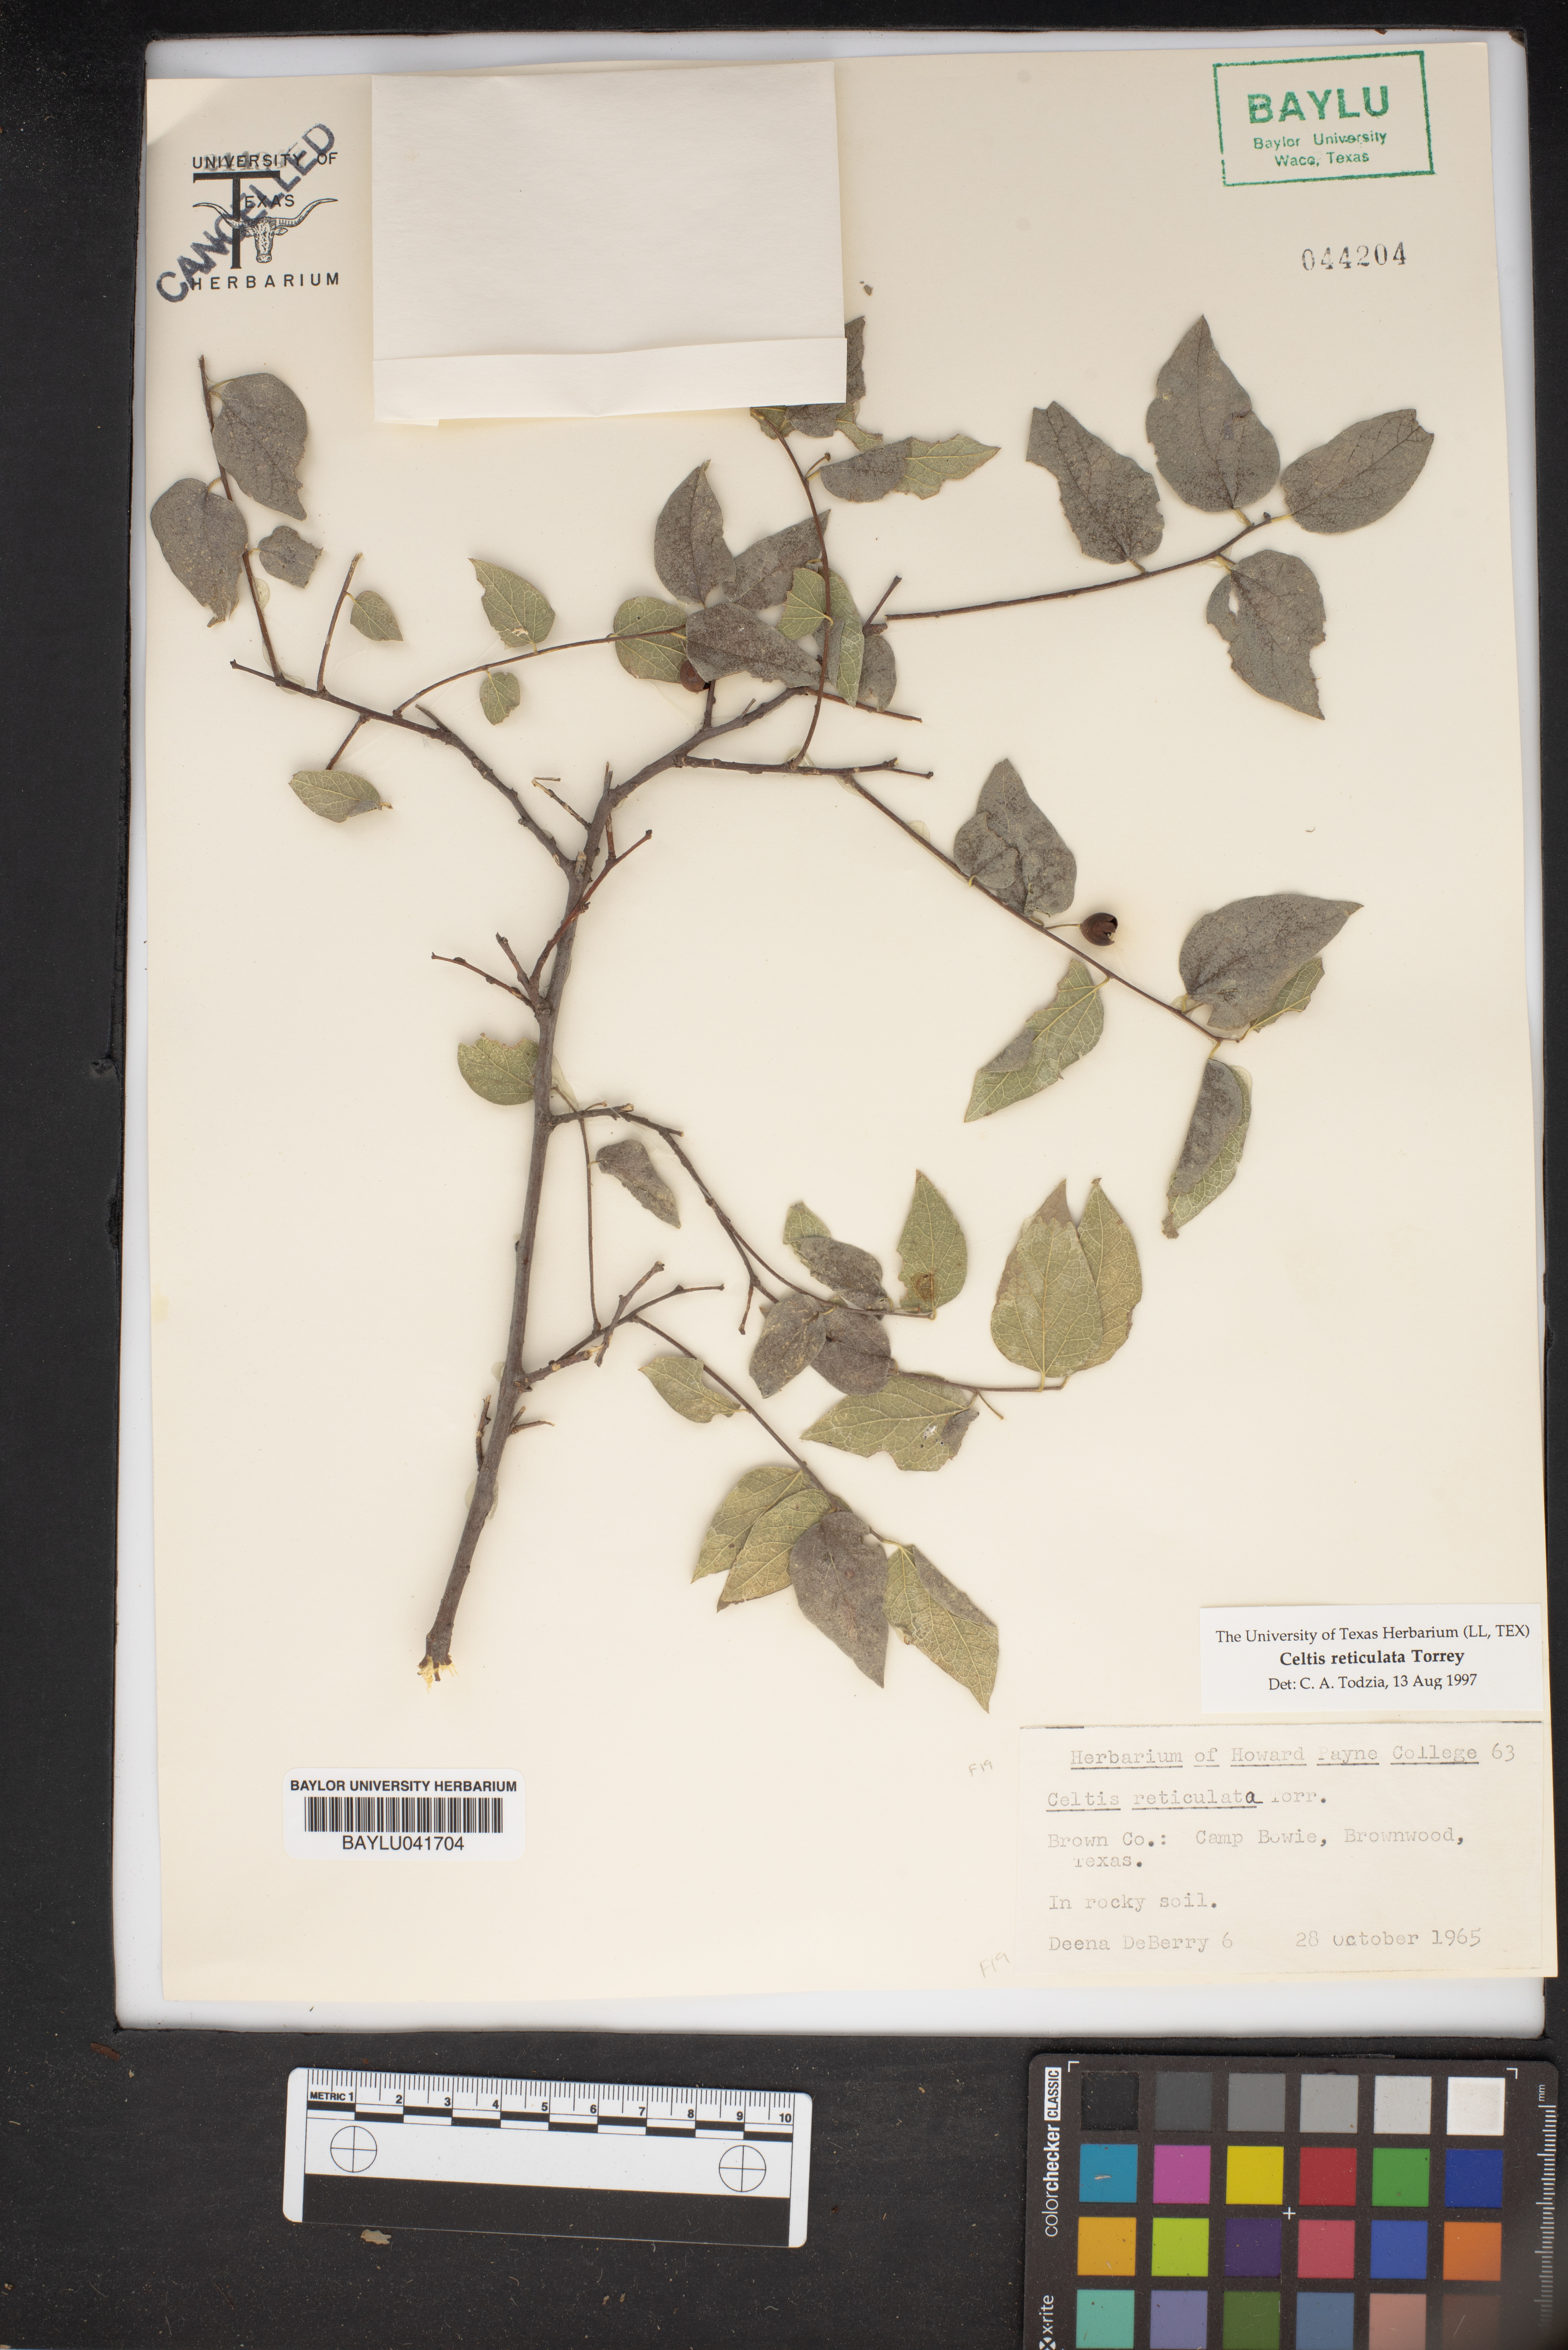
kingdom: Plantae
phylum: Tracheophyta
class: Magnoliopsida
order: Rosales
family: Cannabaceae
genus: Celtis
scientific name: Celtis reticulata
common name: Netleaf hackberry
